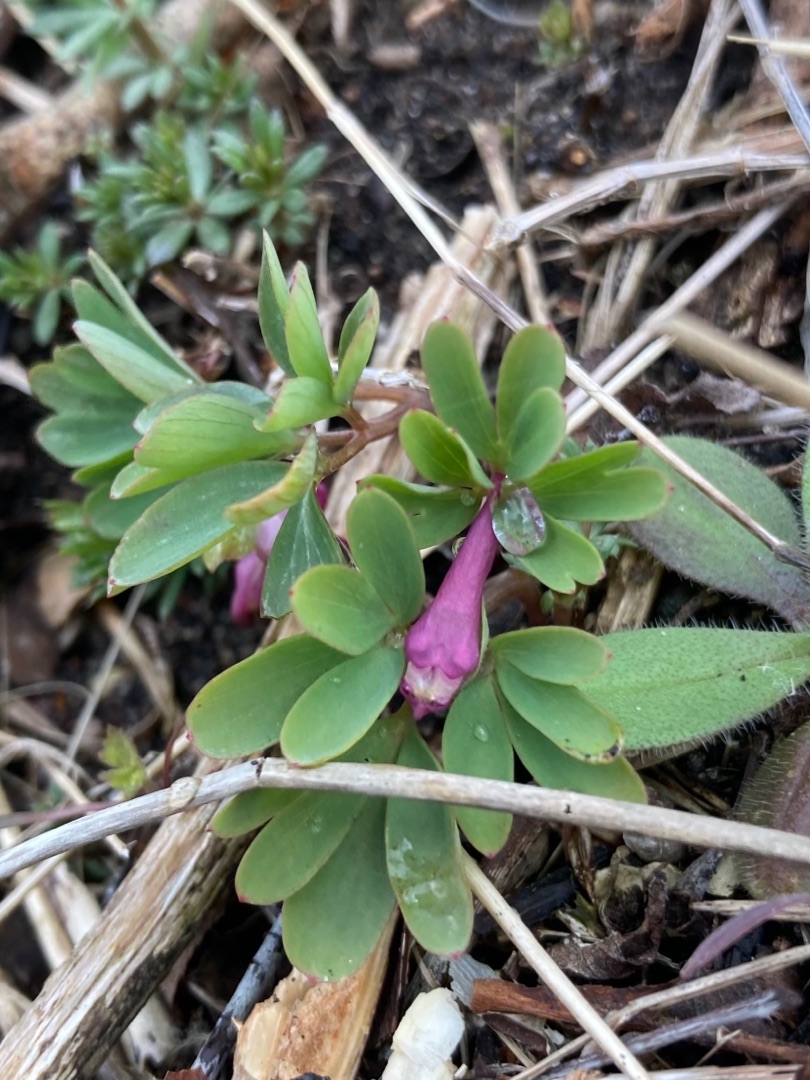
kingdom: Plantae
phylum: Tracheophyta
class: Magnoliopsida
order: Ranunculales
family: Papaveraceae
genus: Corydalis
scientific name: Corydalis intermedia
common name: Liden lærkespore
